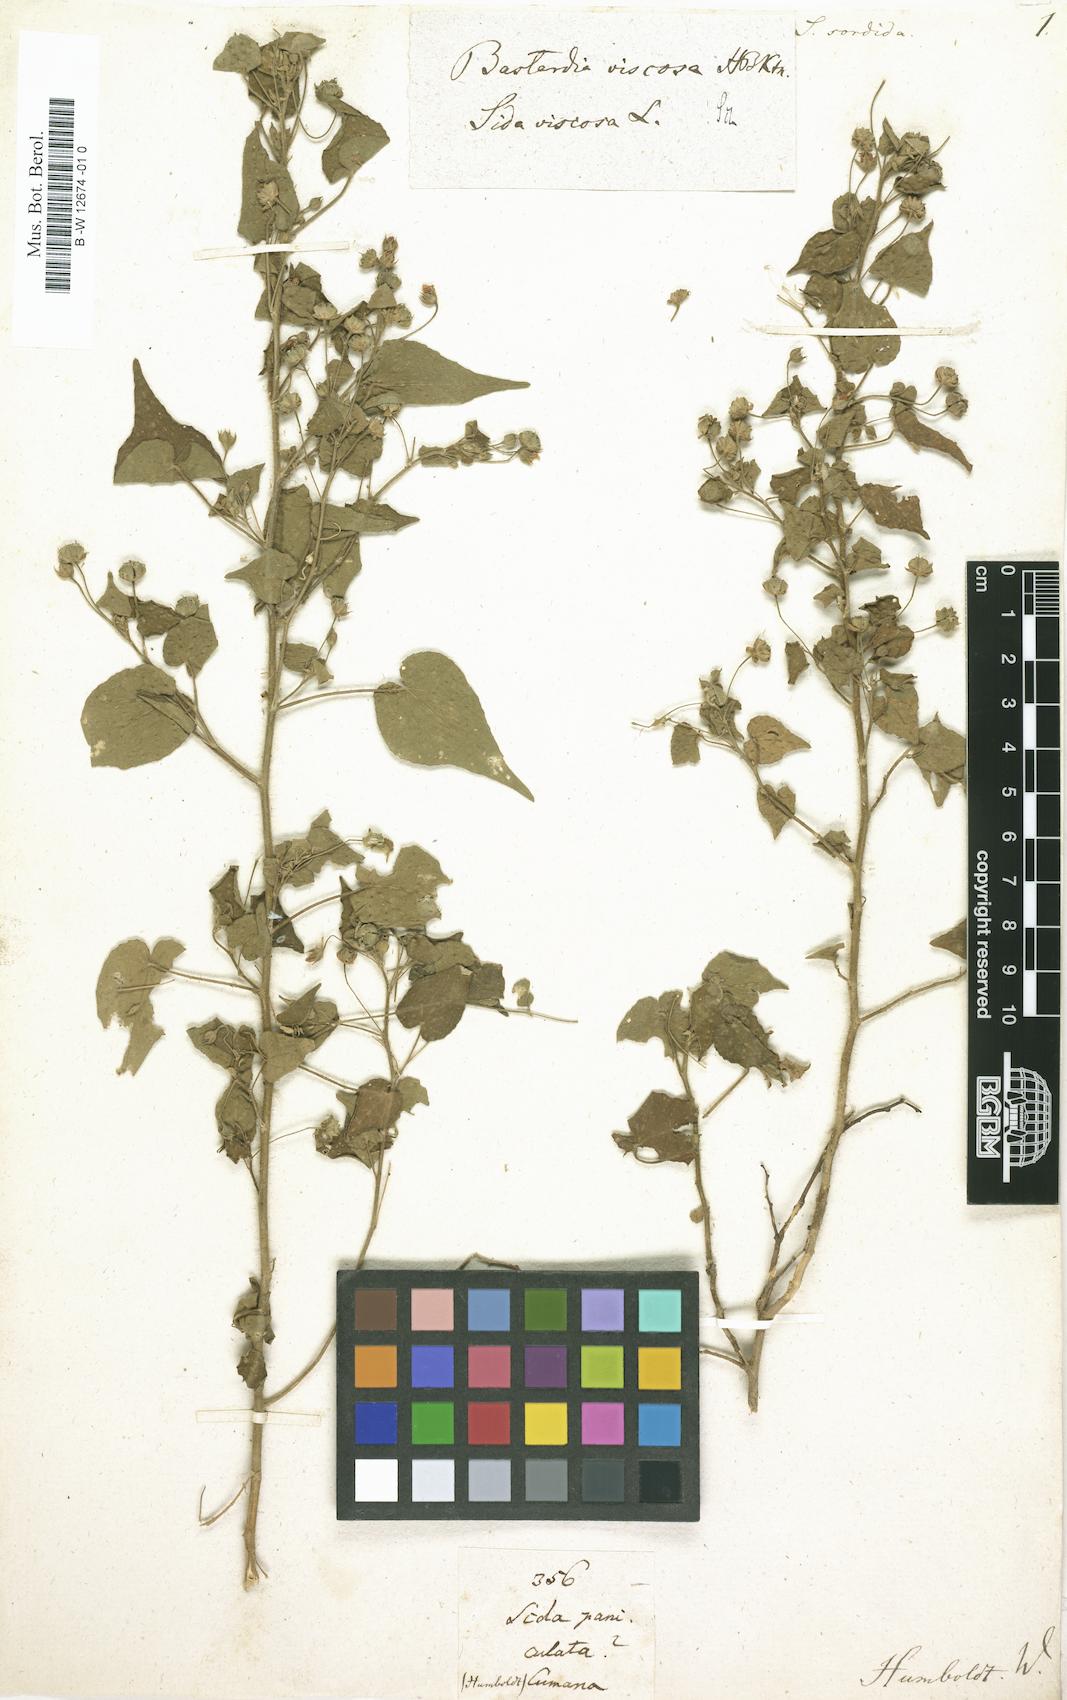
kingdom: Plantae
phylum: Tracheophyta
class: Magnoliopsida
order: Malvales
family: Malvaceae
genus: Abutilon
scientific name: Abutilon viscosum
